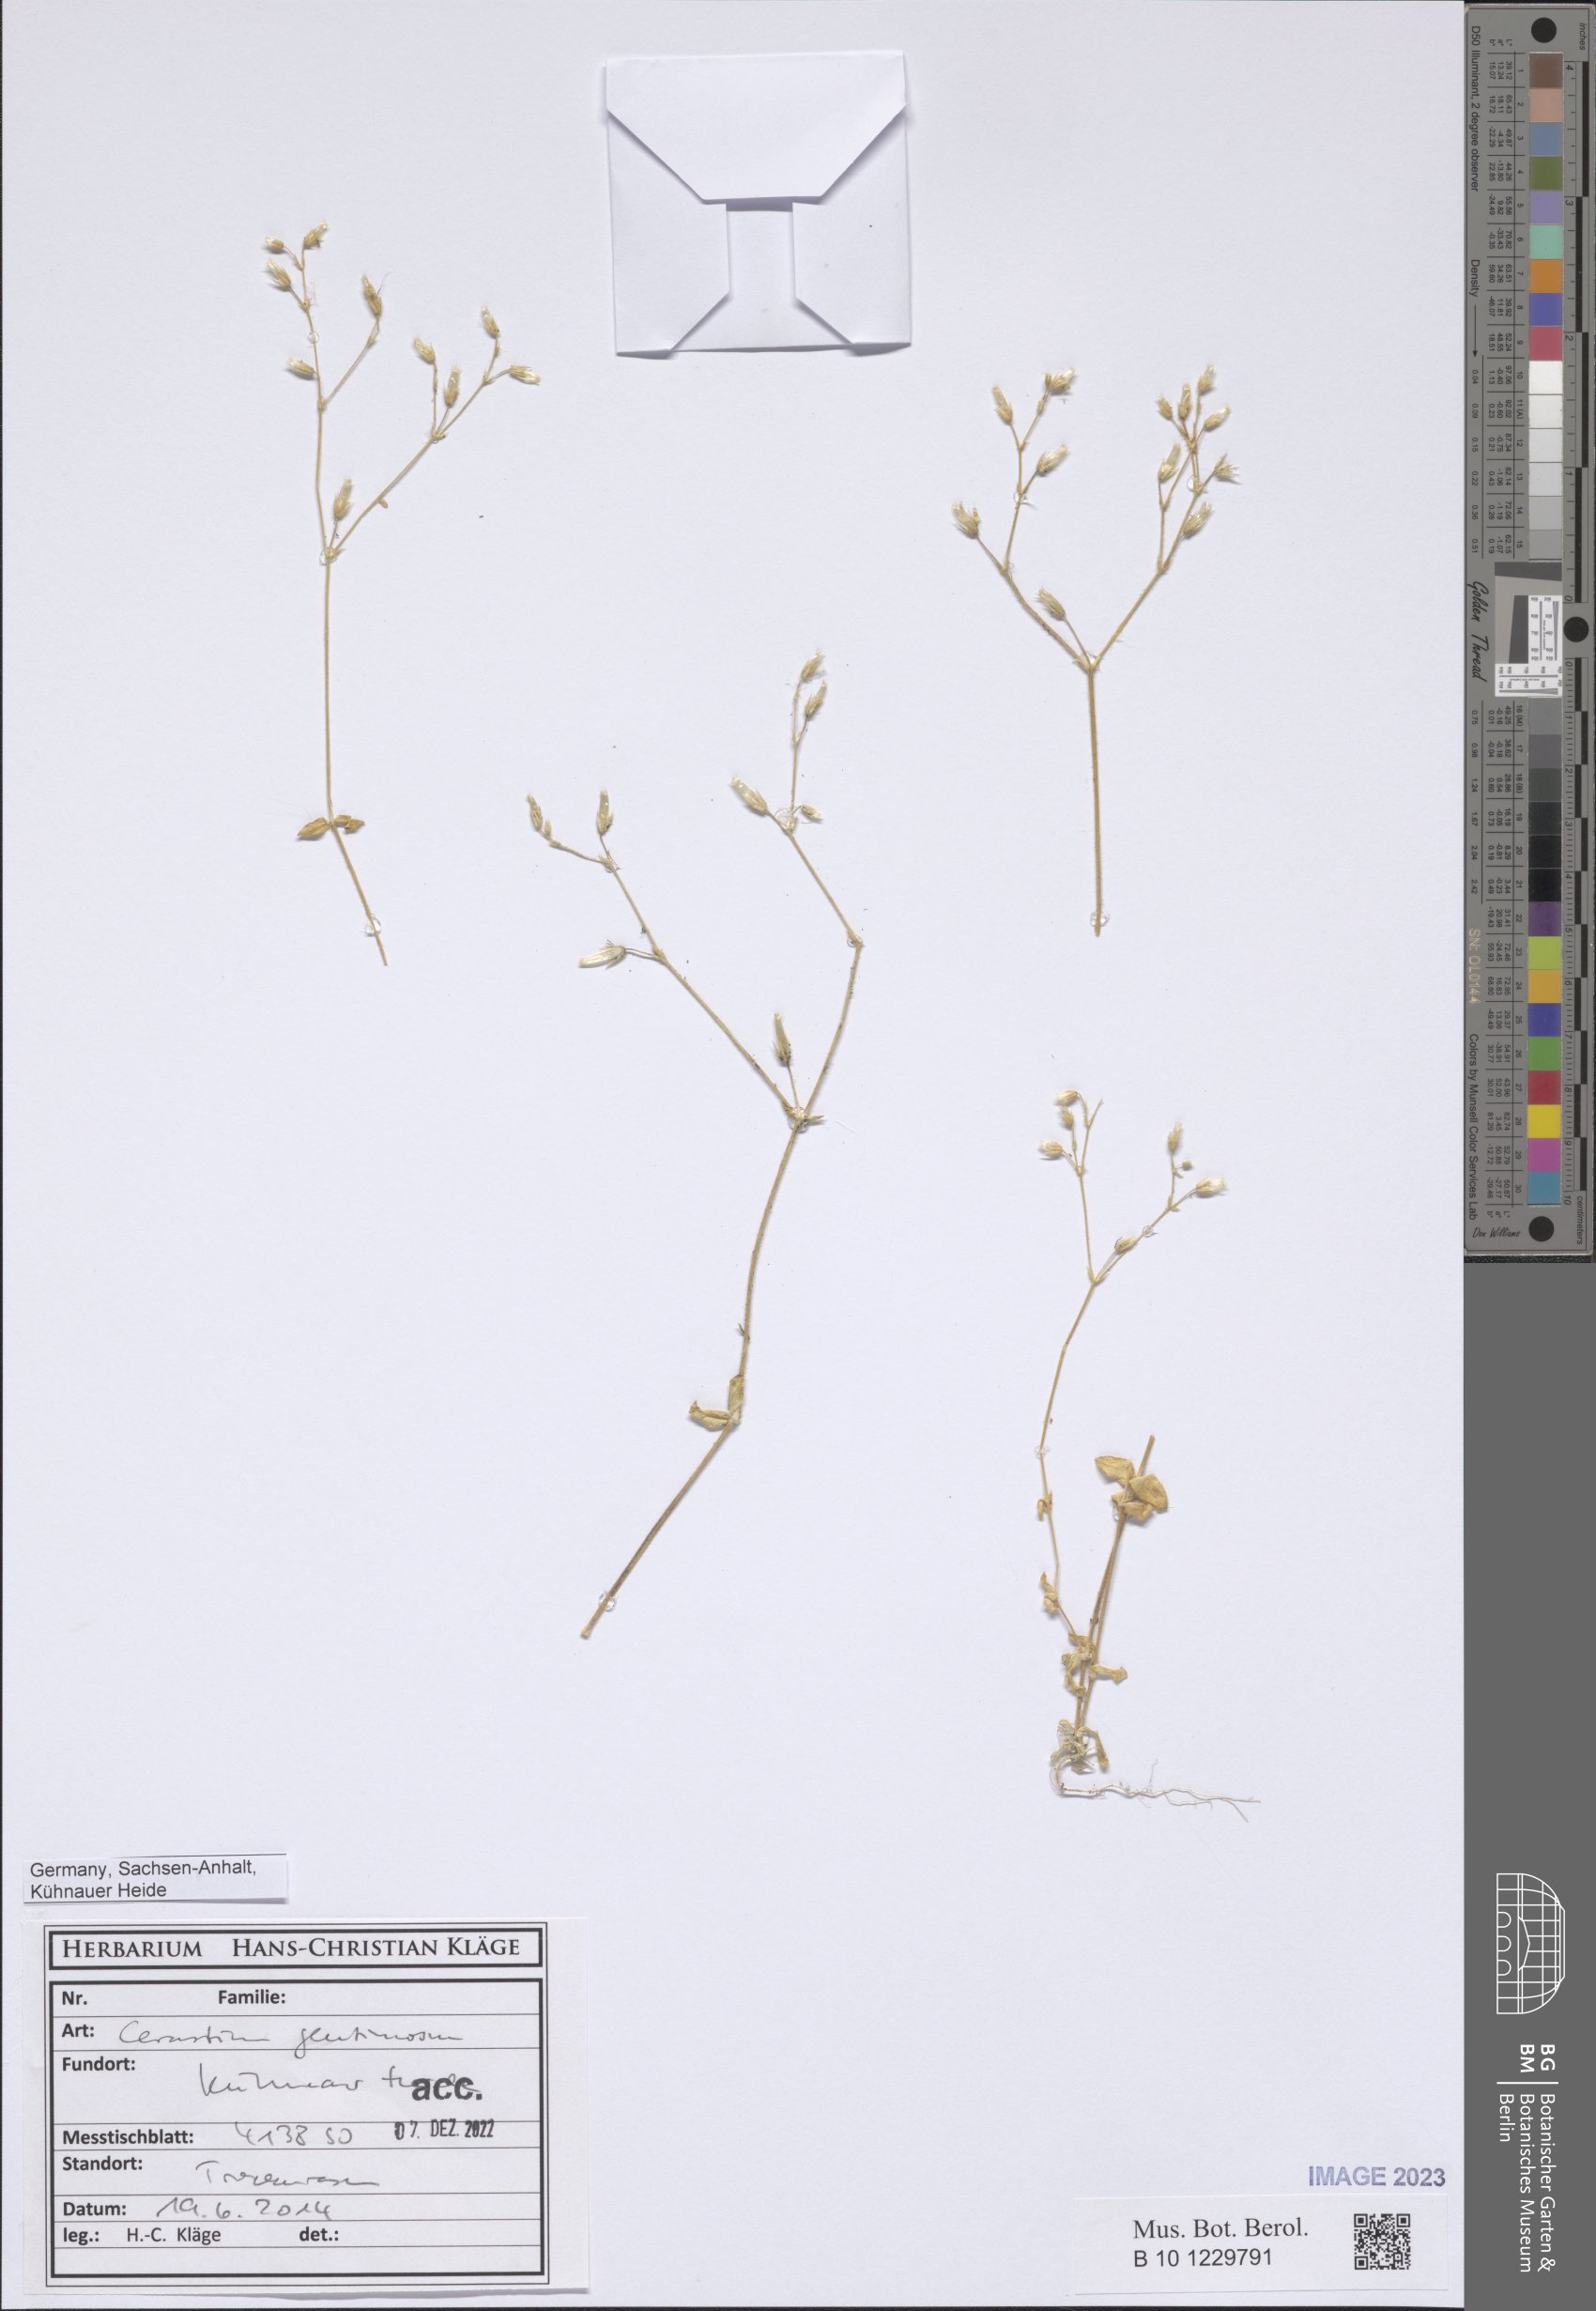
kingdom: Plantae
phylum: Tracheophyta
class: Magnoliopsida
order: Caryophyllales
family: Caryophyllaceae
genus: Cerastium
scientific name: Cerastium glutinosum
